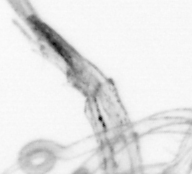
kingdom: Chromista
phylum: Ochrophyta
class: Bacillariophyceae
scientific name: Bacillariophyceae
